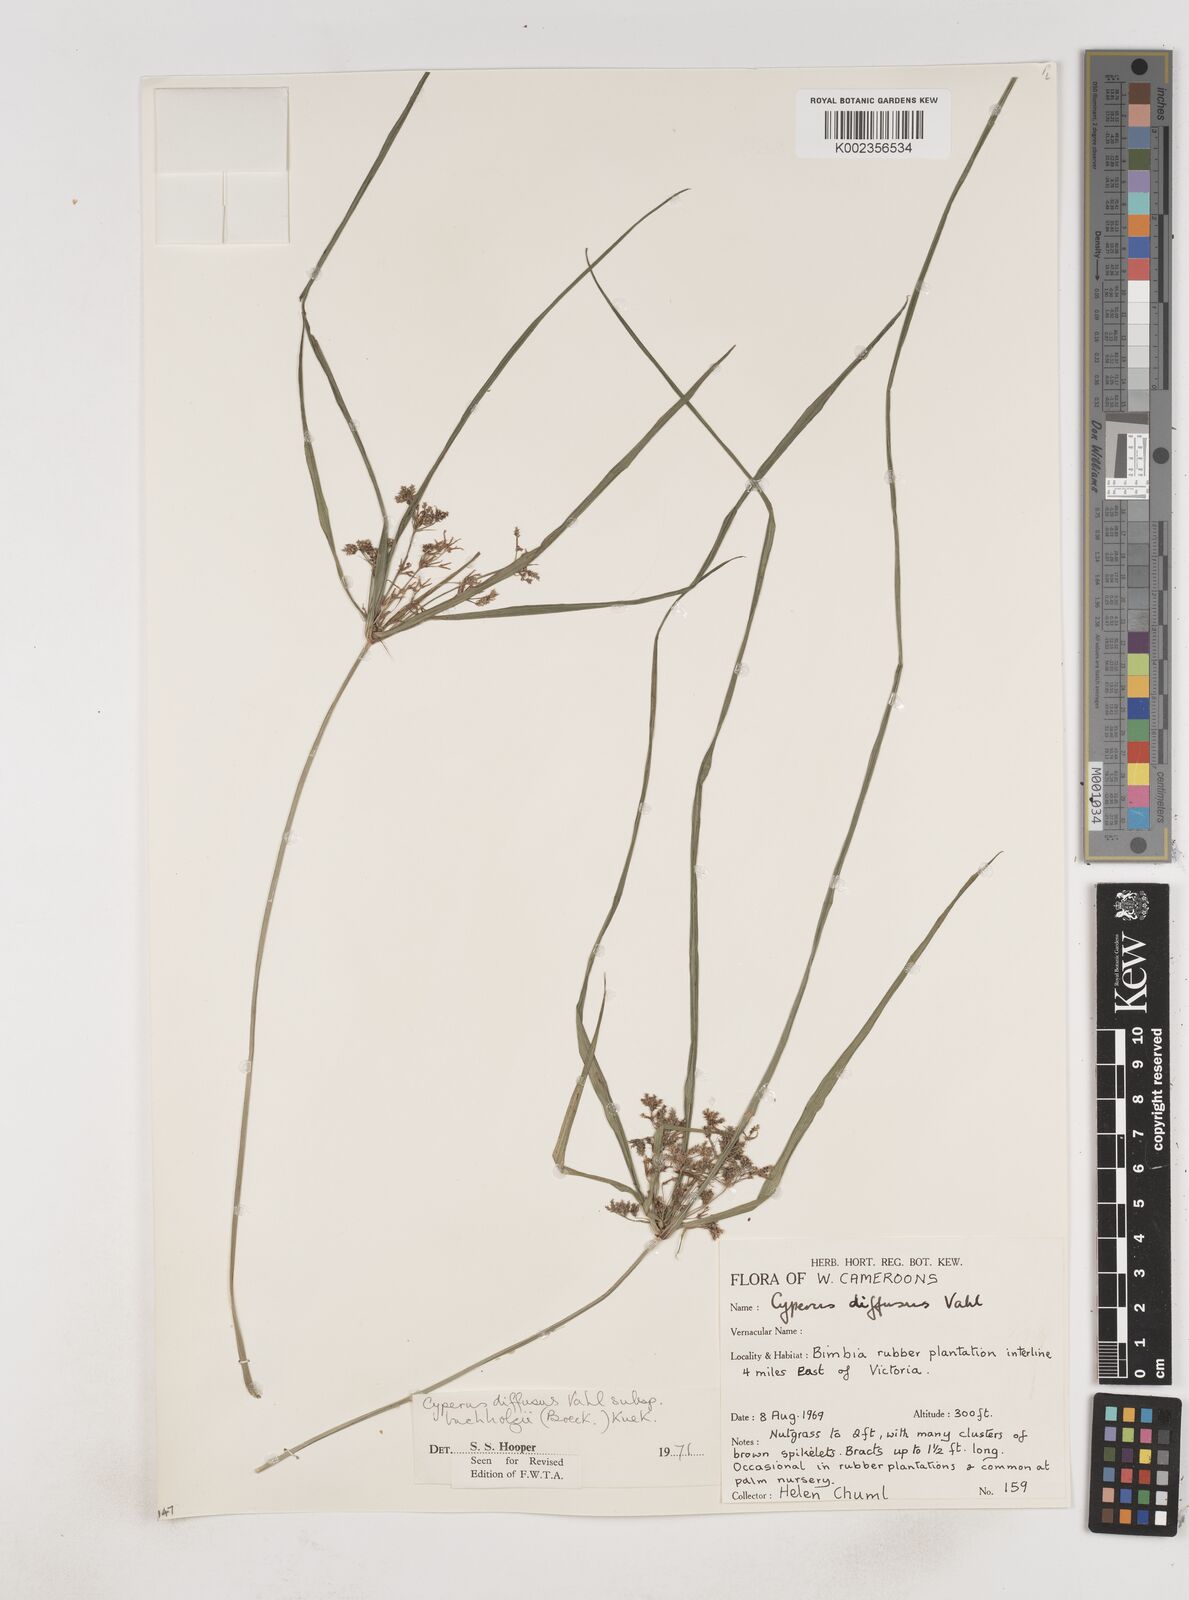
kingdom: Plantae
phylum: Tracheophyta
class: Liliopsida
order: Poales
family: Cyperaceae
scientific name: Cyperaceae
